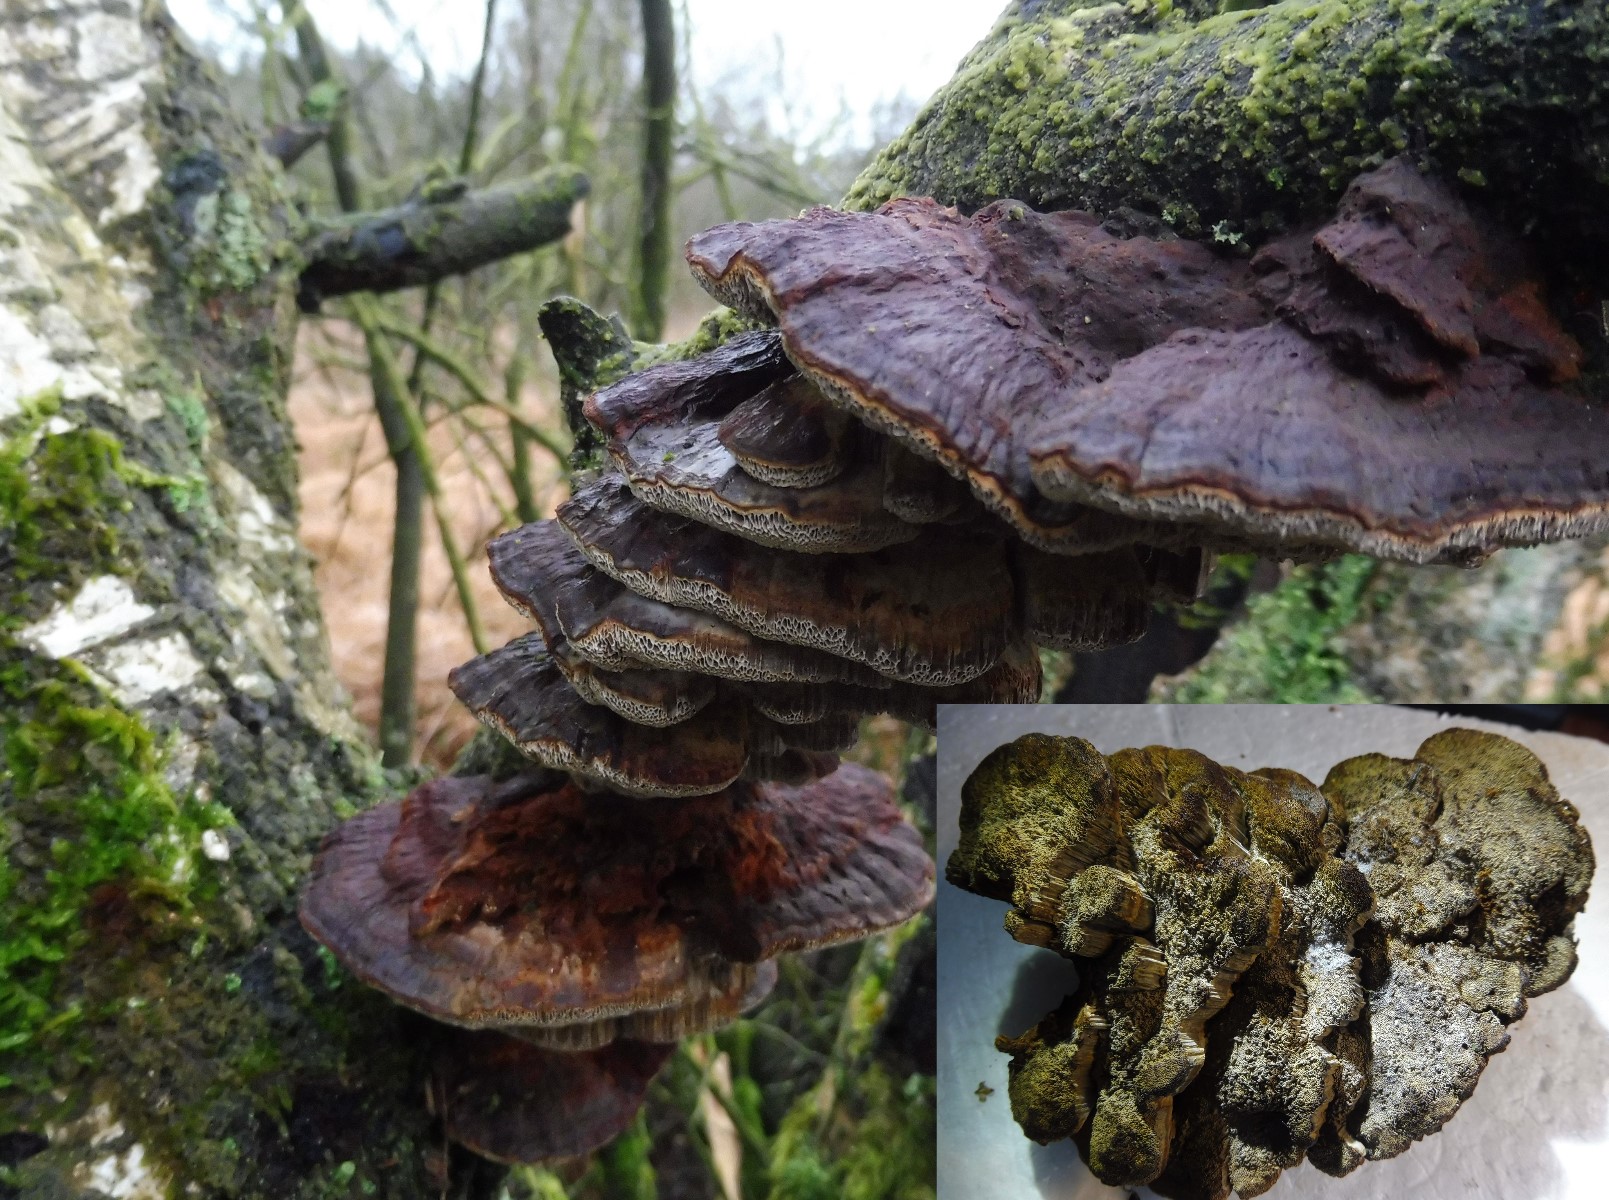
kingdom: Fungi
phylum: Basidiomycota
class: Agaricomycetes
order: Hymenochaetales
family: Hymenochaetaceae
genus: Xanthoporia
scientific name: Xanthoporia radiata
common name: elle-spejlporesvamp
